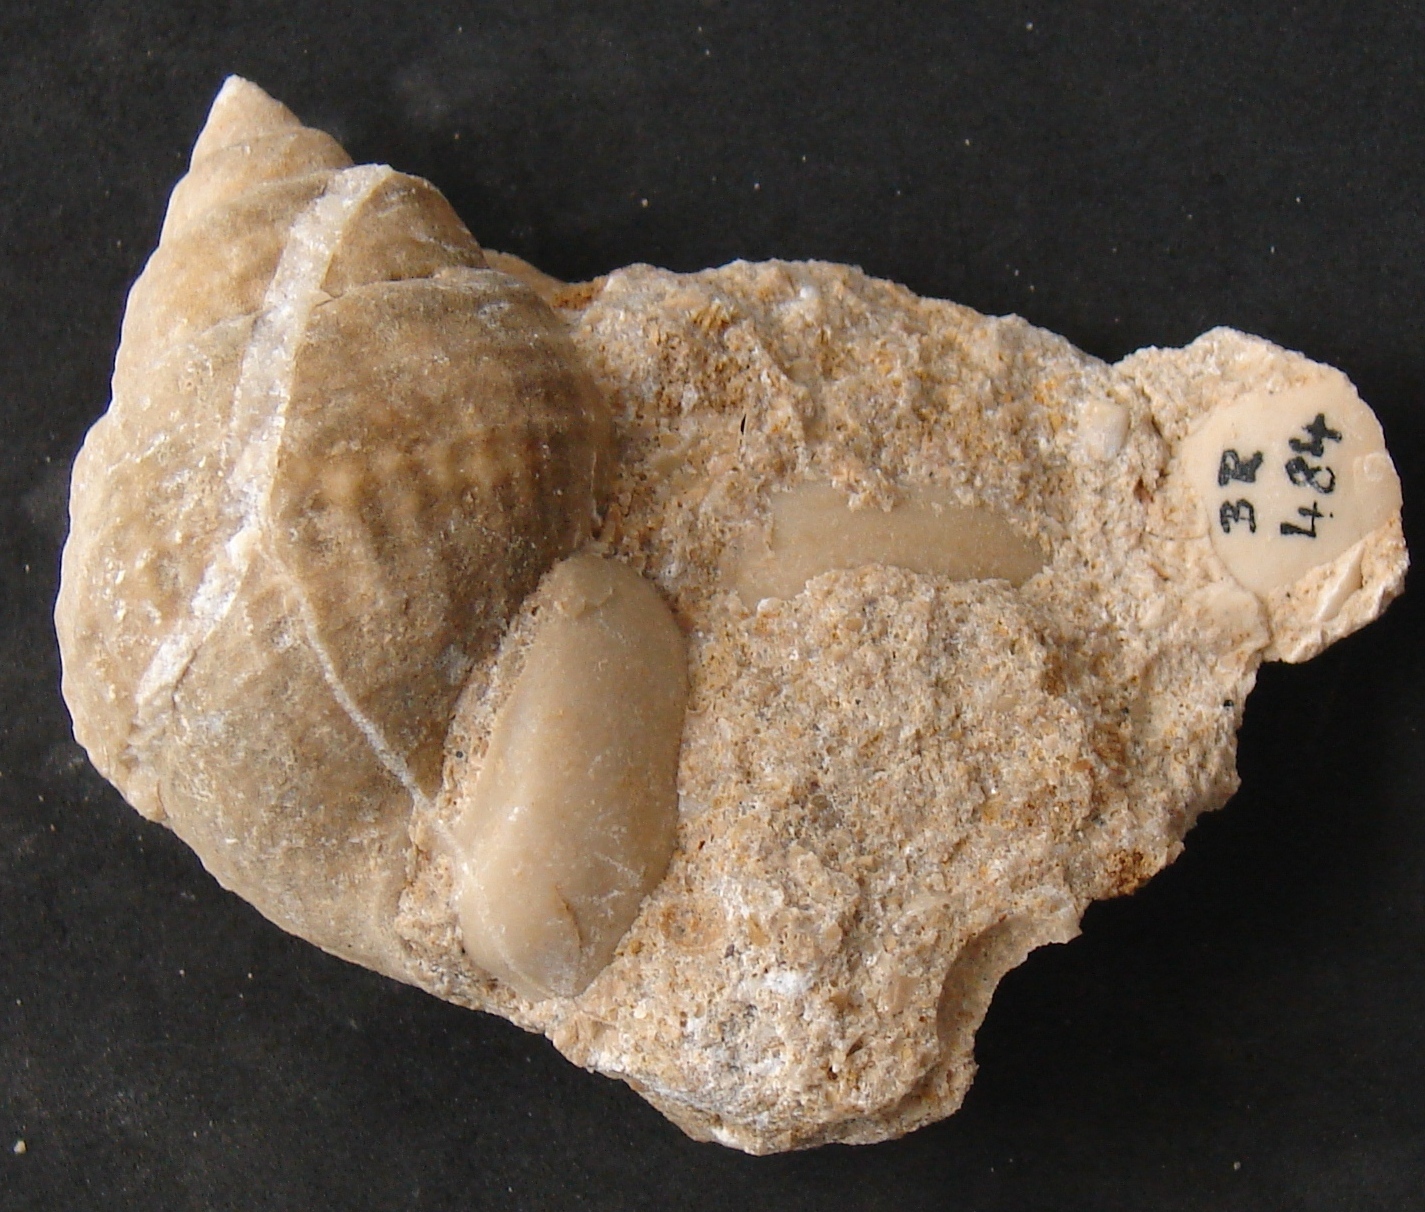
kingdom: Animalia
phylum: Mollusca
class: Gastropoda
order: Neogastropoda
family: Purpurinidae
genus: Microschiza
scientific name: Microschiza
